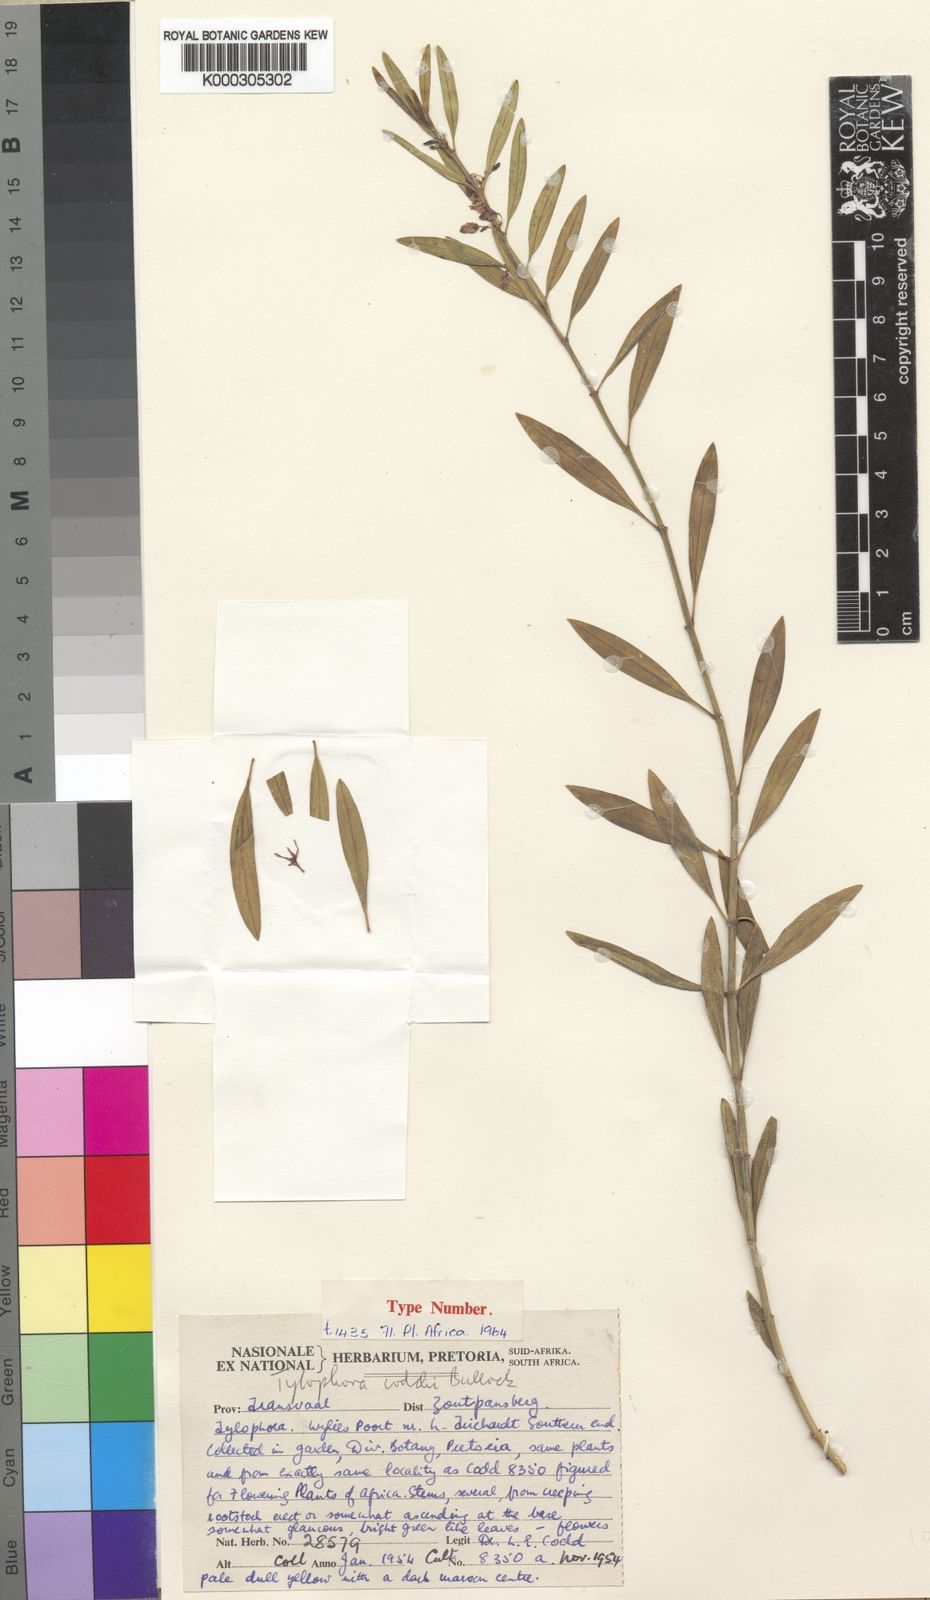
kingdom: Plantae
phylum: Tracheophyta
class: Magnoliopsida
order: Gentianales
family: Apocynaceae
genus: Vincetoxicum
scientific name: Vincetoxicum coddii
